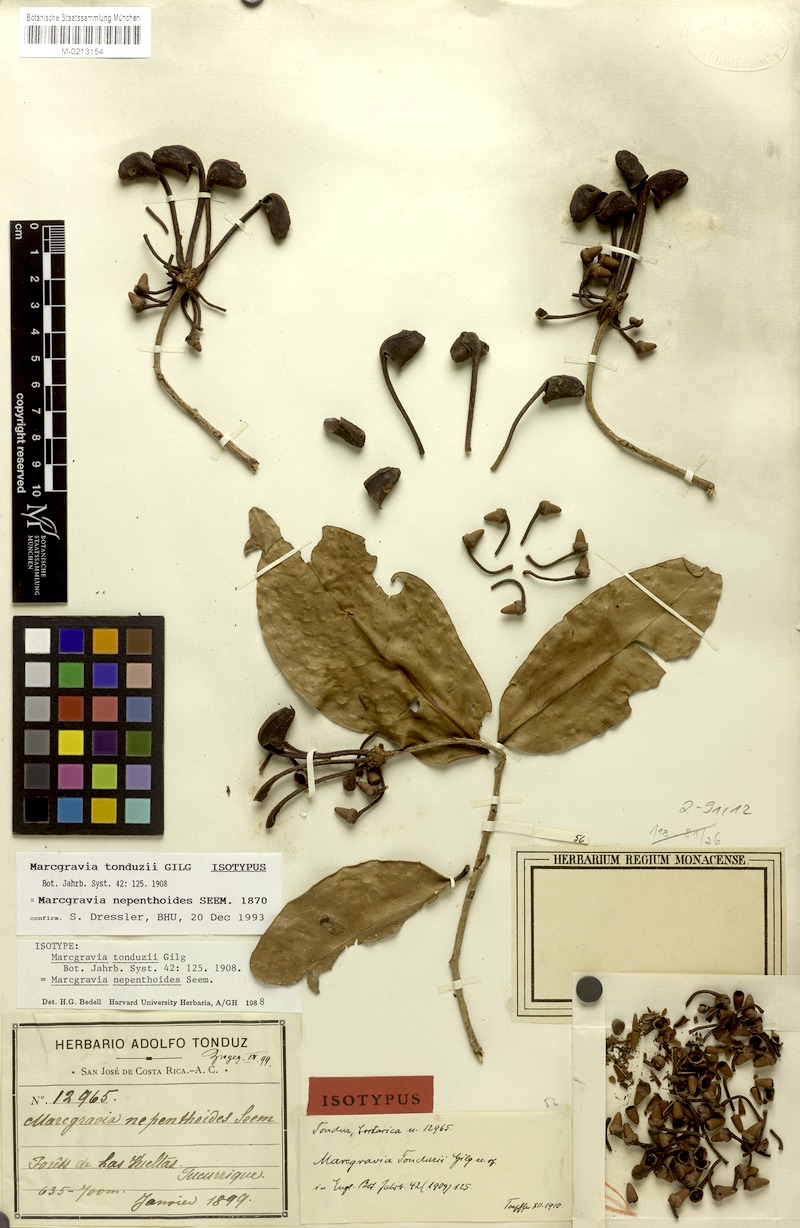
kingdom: Plantae
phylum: Tracheophyta
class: Magnoliopsida
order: Ericales
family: Marcgraviaceae
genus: Marcgravia
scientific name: Marcgravia nepenthoides
